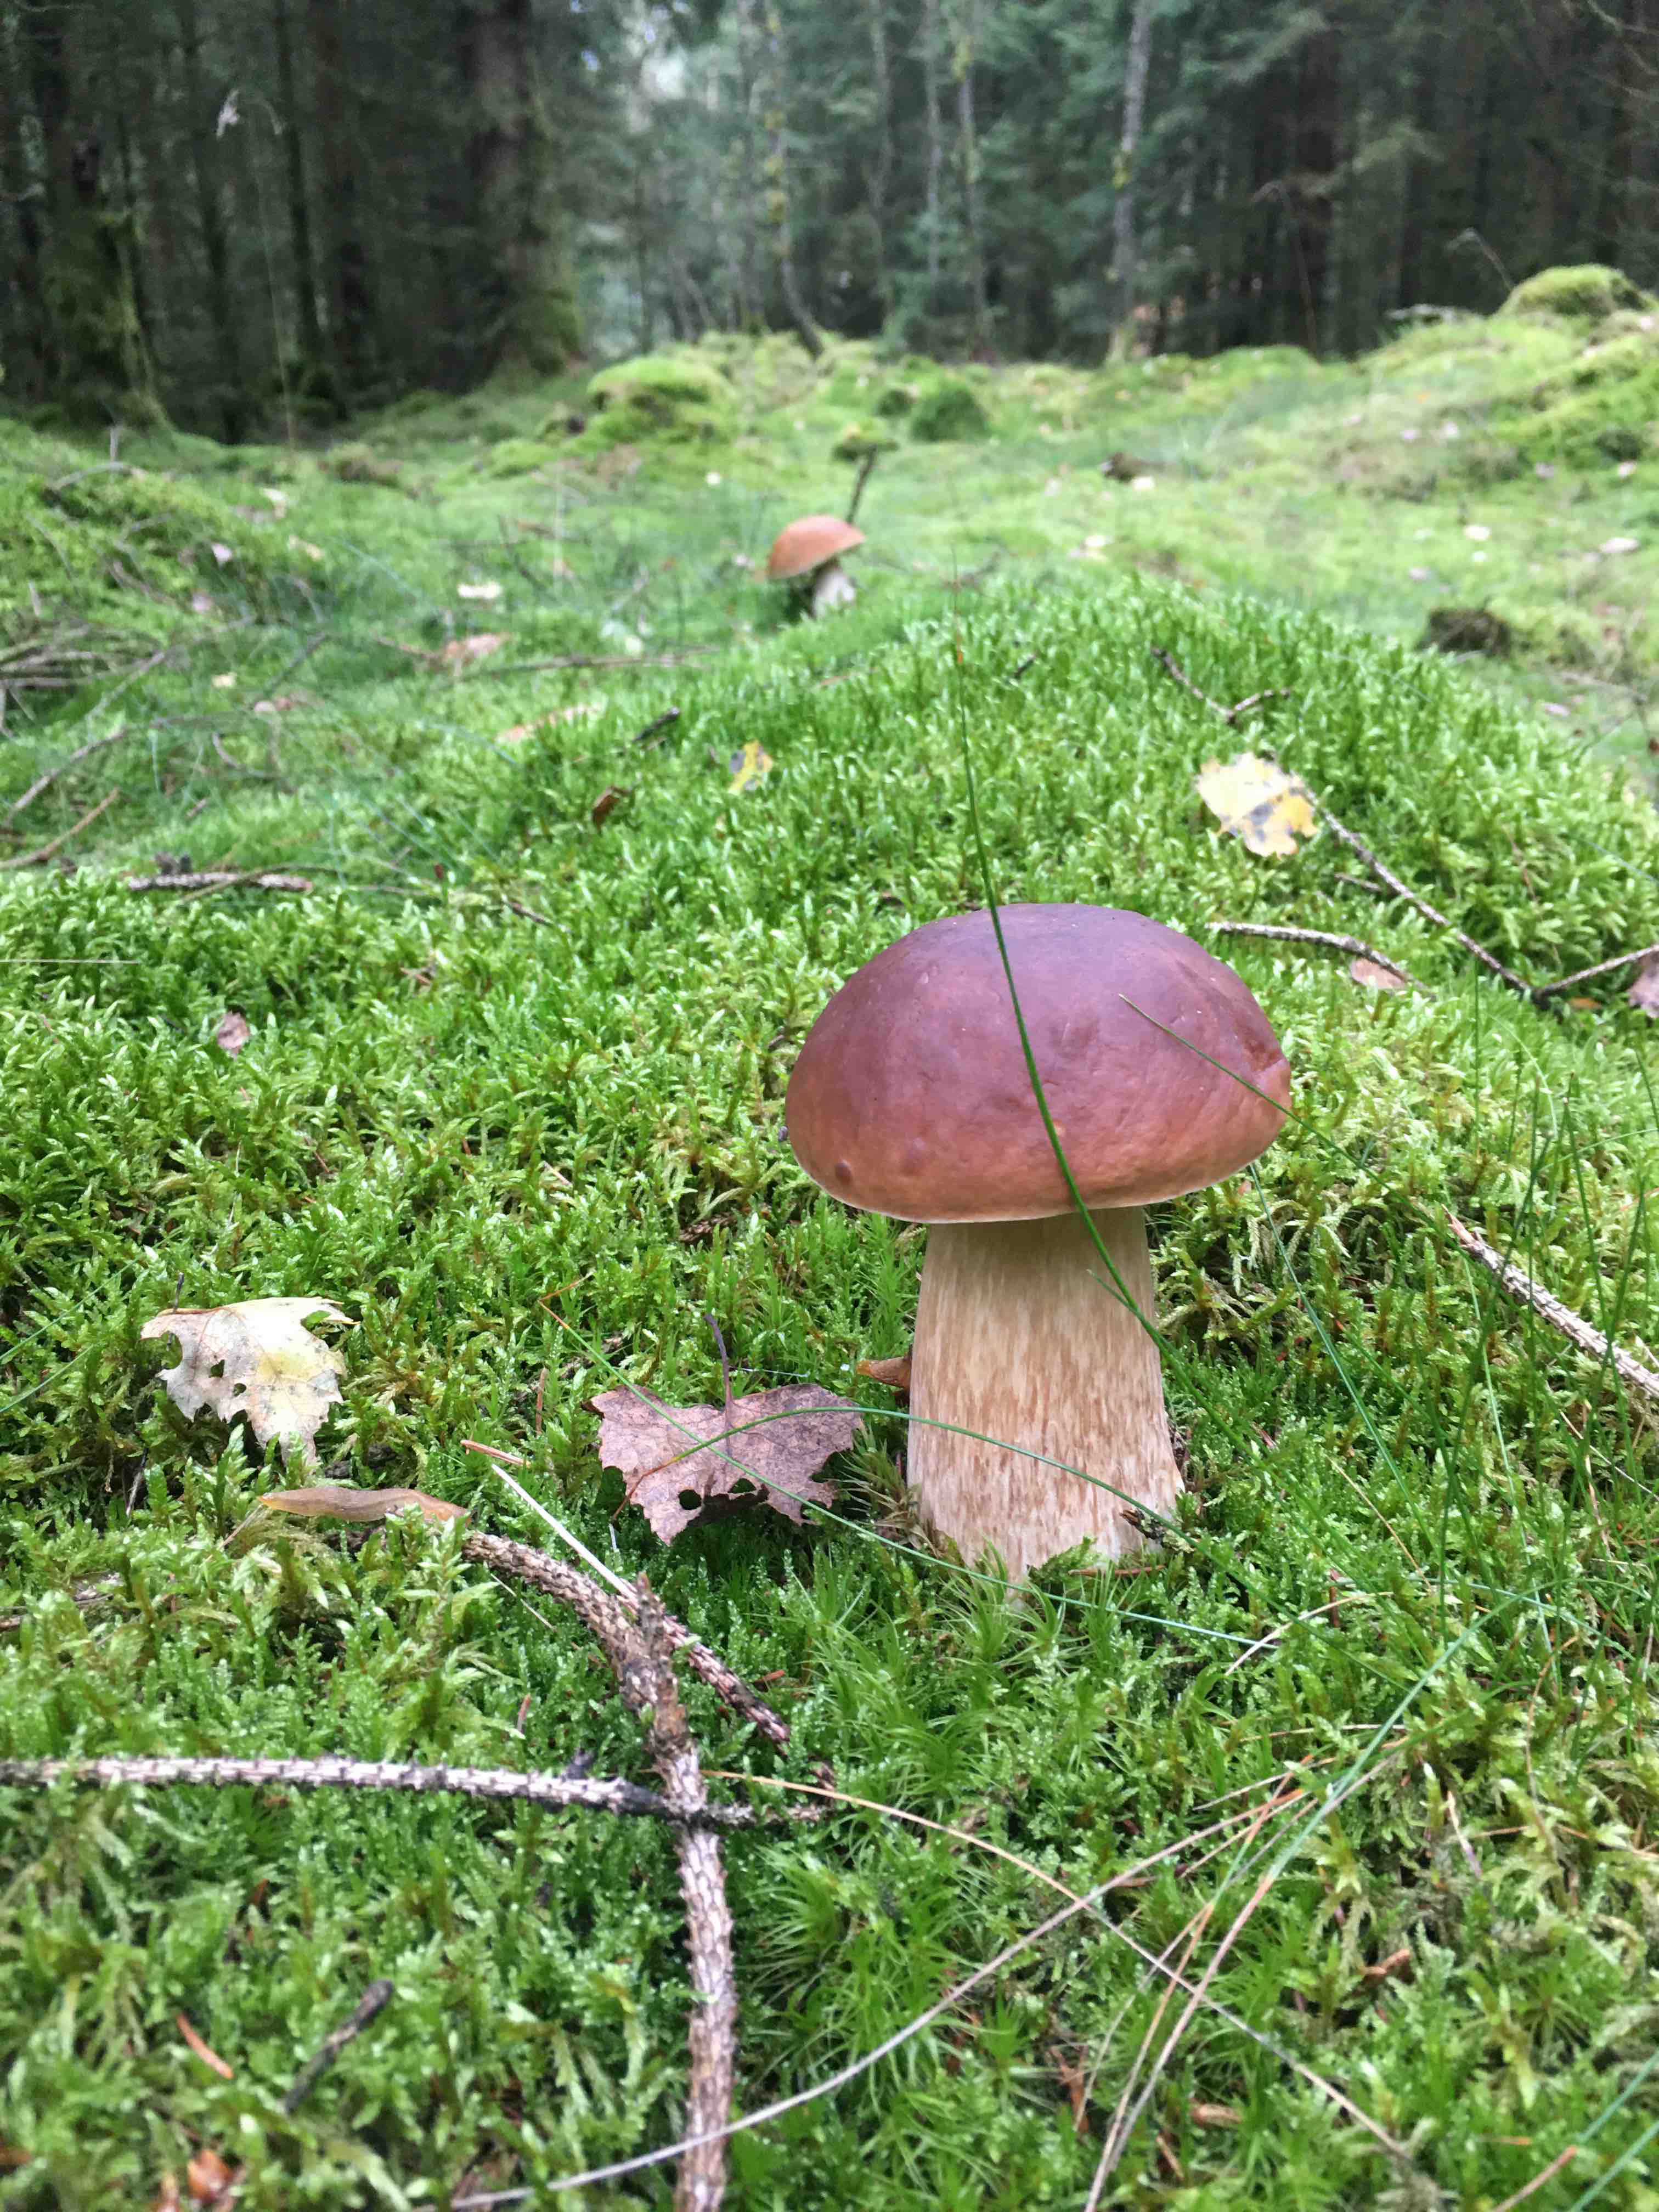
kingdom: Fungi
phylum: Basidiomycota
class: Agaricomycetes
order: Boletales
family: Boletaceae
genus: Boletus
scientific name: Boletus edulis
